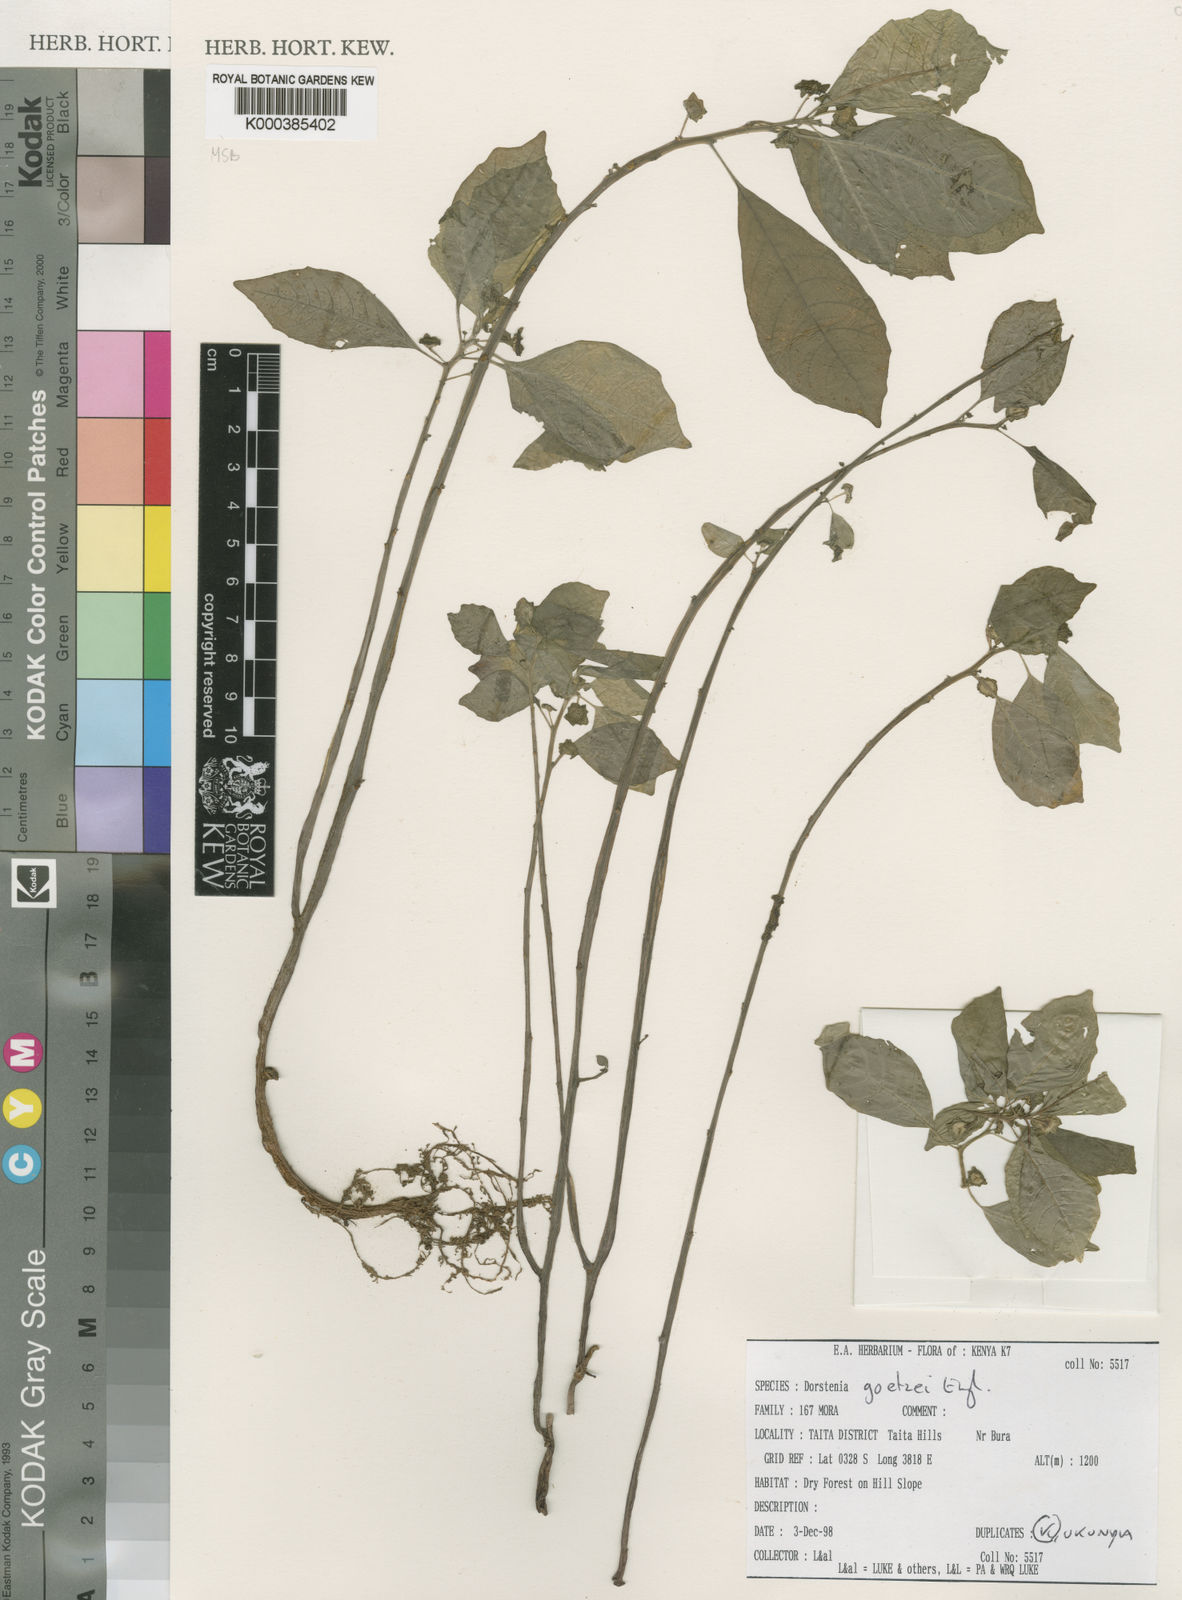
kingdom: Plantae
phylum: Tracheophyta
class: Magnoliopsida
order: Rosales
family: Moraceae
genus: Dorstenia
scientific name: Dorstenia goetzei
